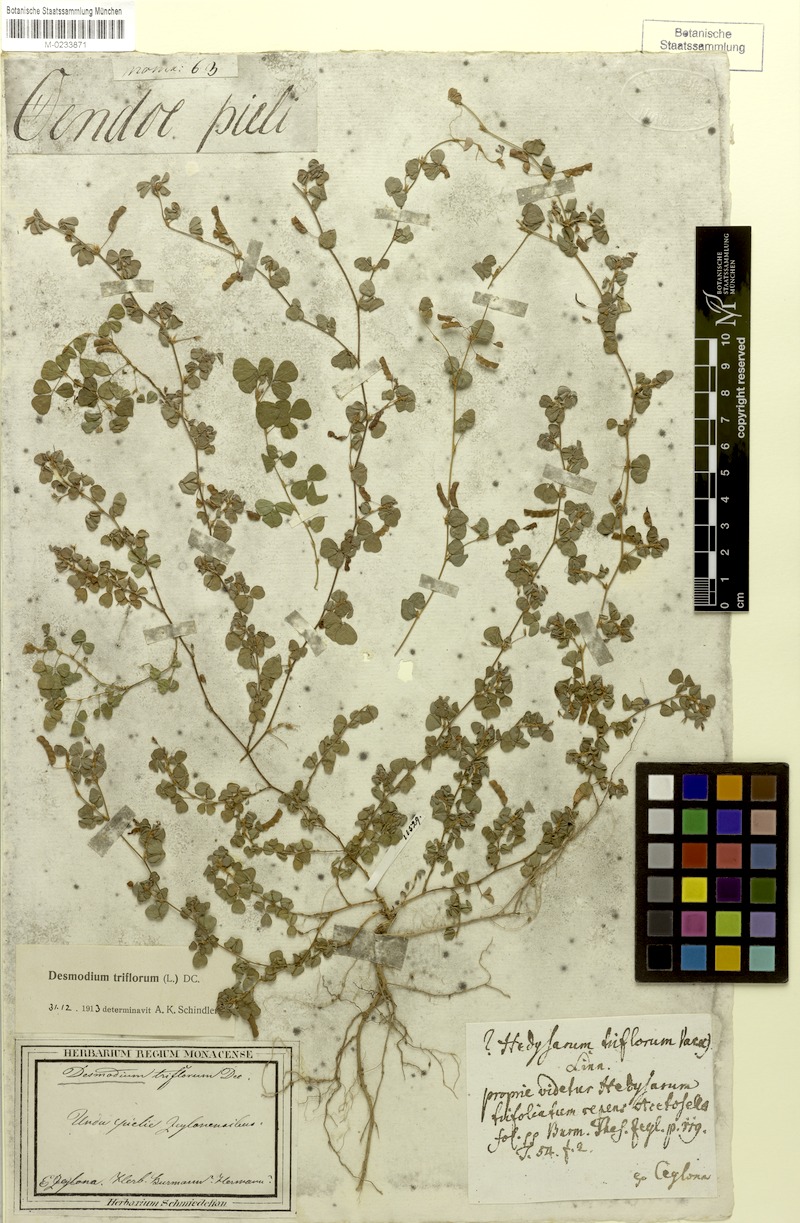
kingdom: Plantae
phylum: Tracheophyta
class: Magnoliopsida
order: Fabales
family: Fabaceae
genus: Grona
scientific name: Grona triflora
